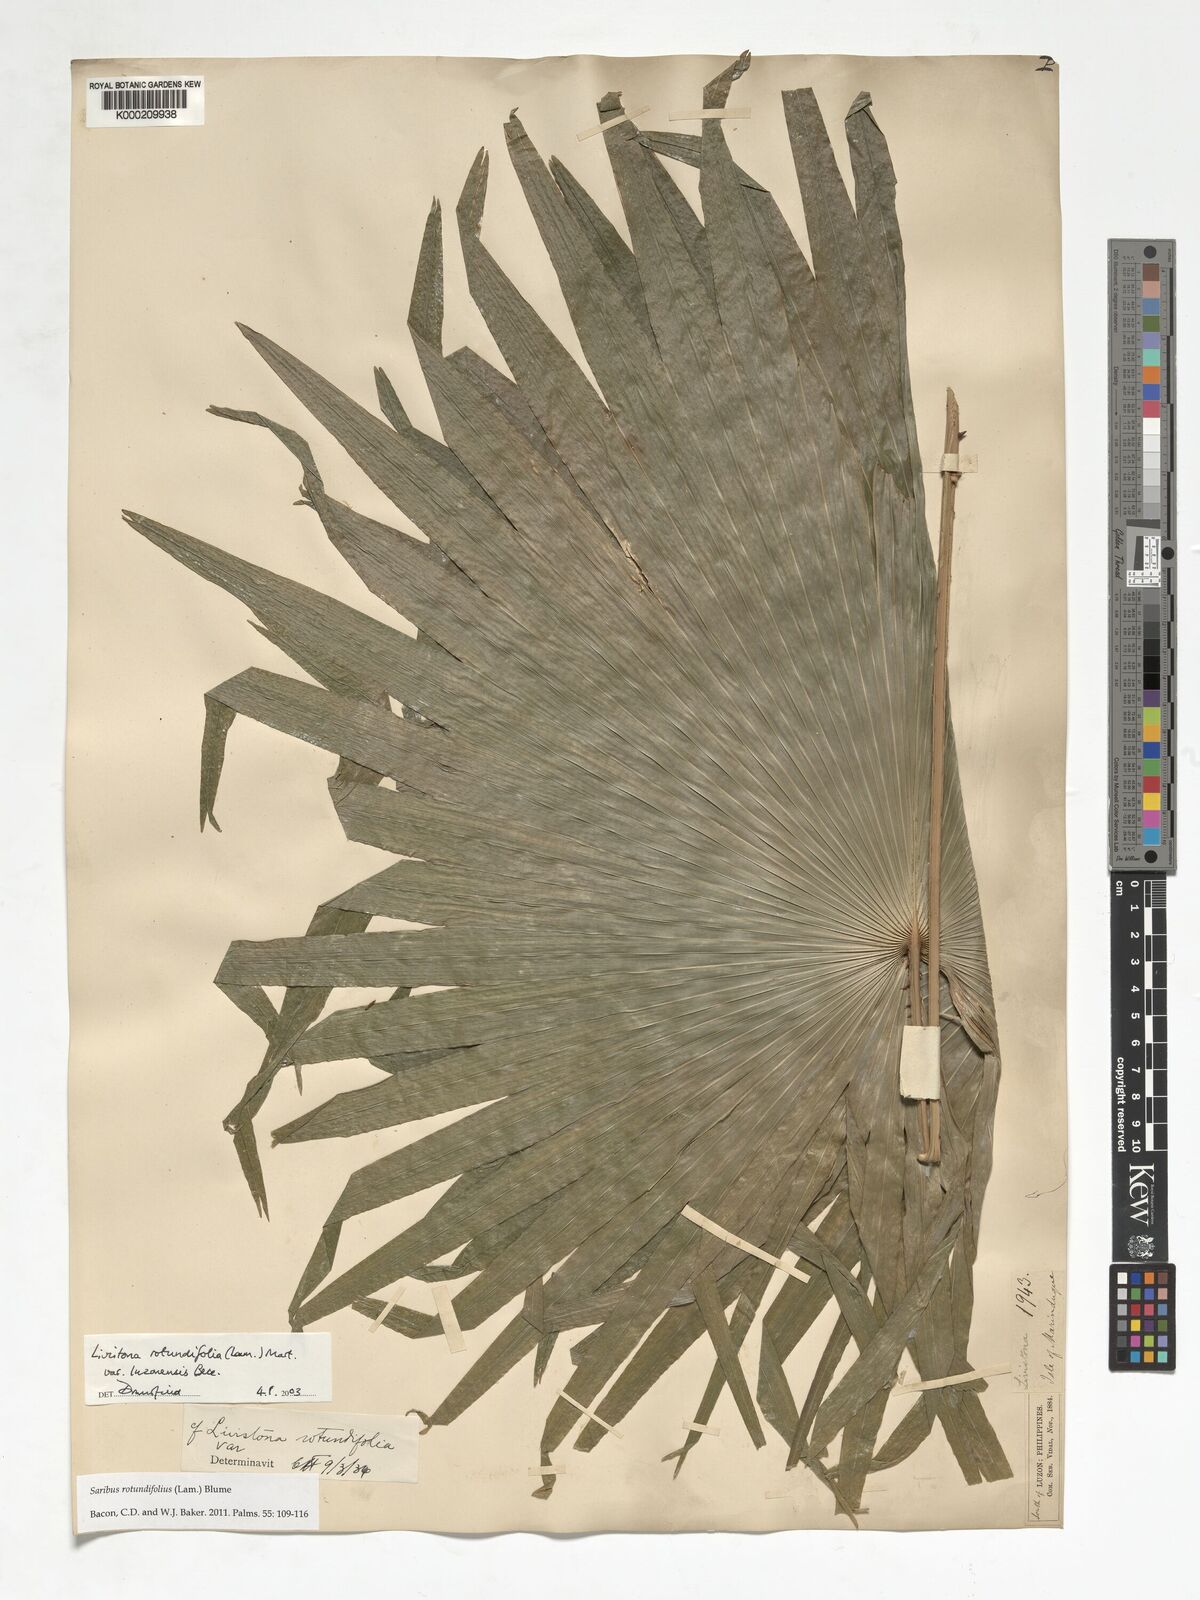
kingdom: Plantae
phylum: Tracheophyta
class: Liliopsida
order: Arecales
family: Arecaceae
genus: Saribus
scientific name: Saribus rotundifolius
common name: Palm
